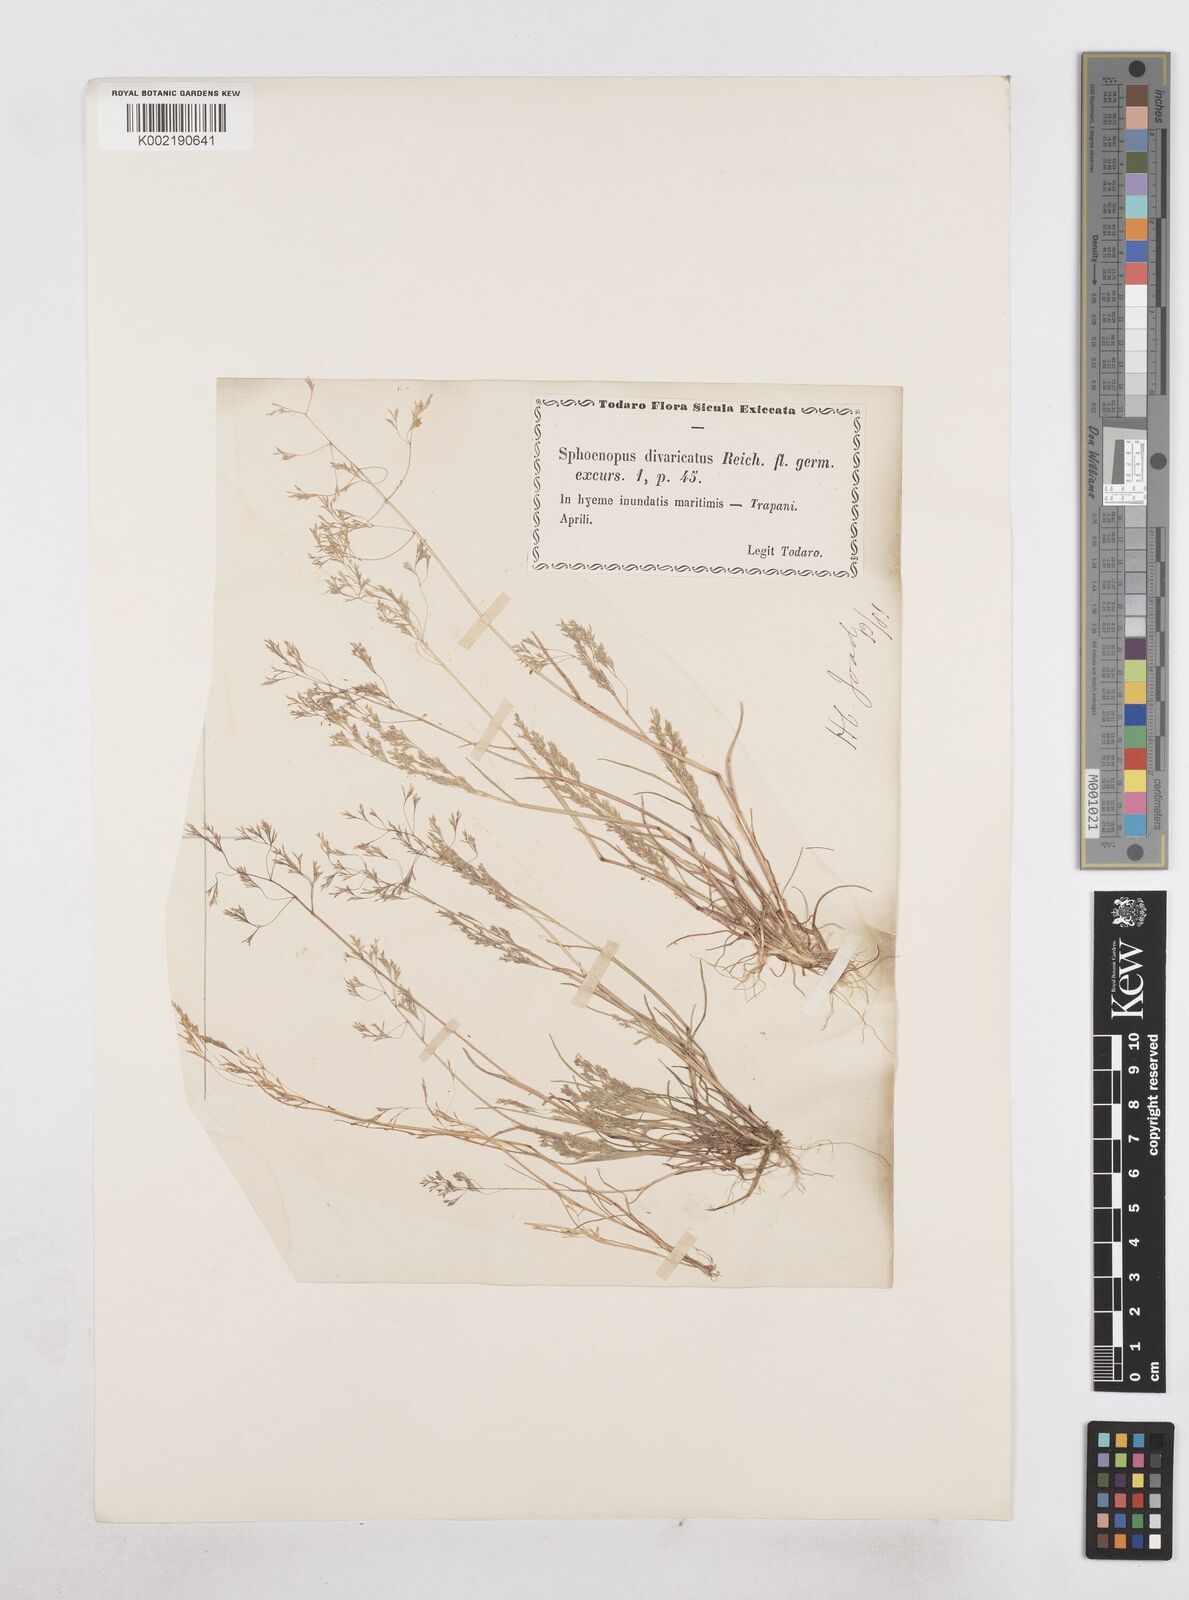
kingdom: Plantae
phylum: Tracheophyta
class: Liliopsida
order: Poales
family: Poaceae
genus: Sphenopus
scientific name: Sphenopus divaricatus
